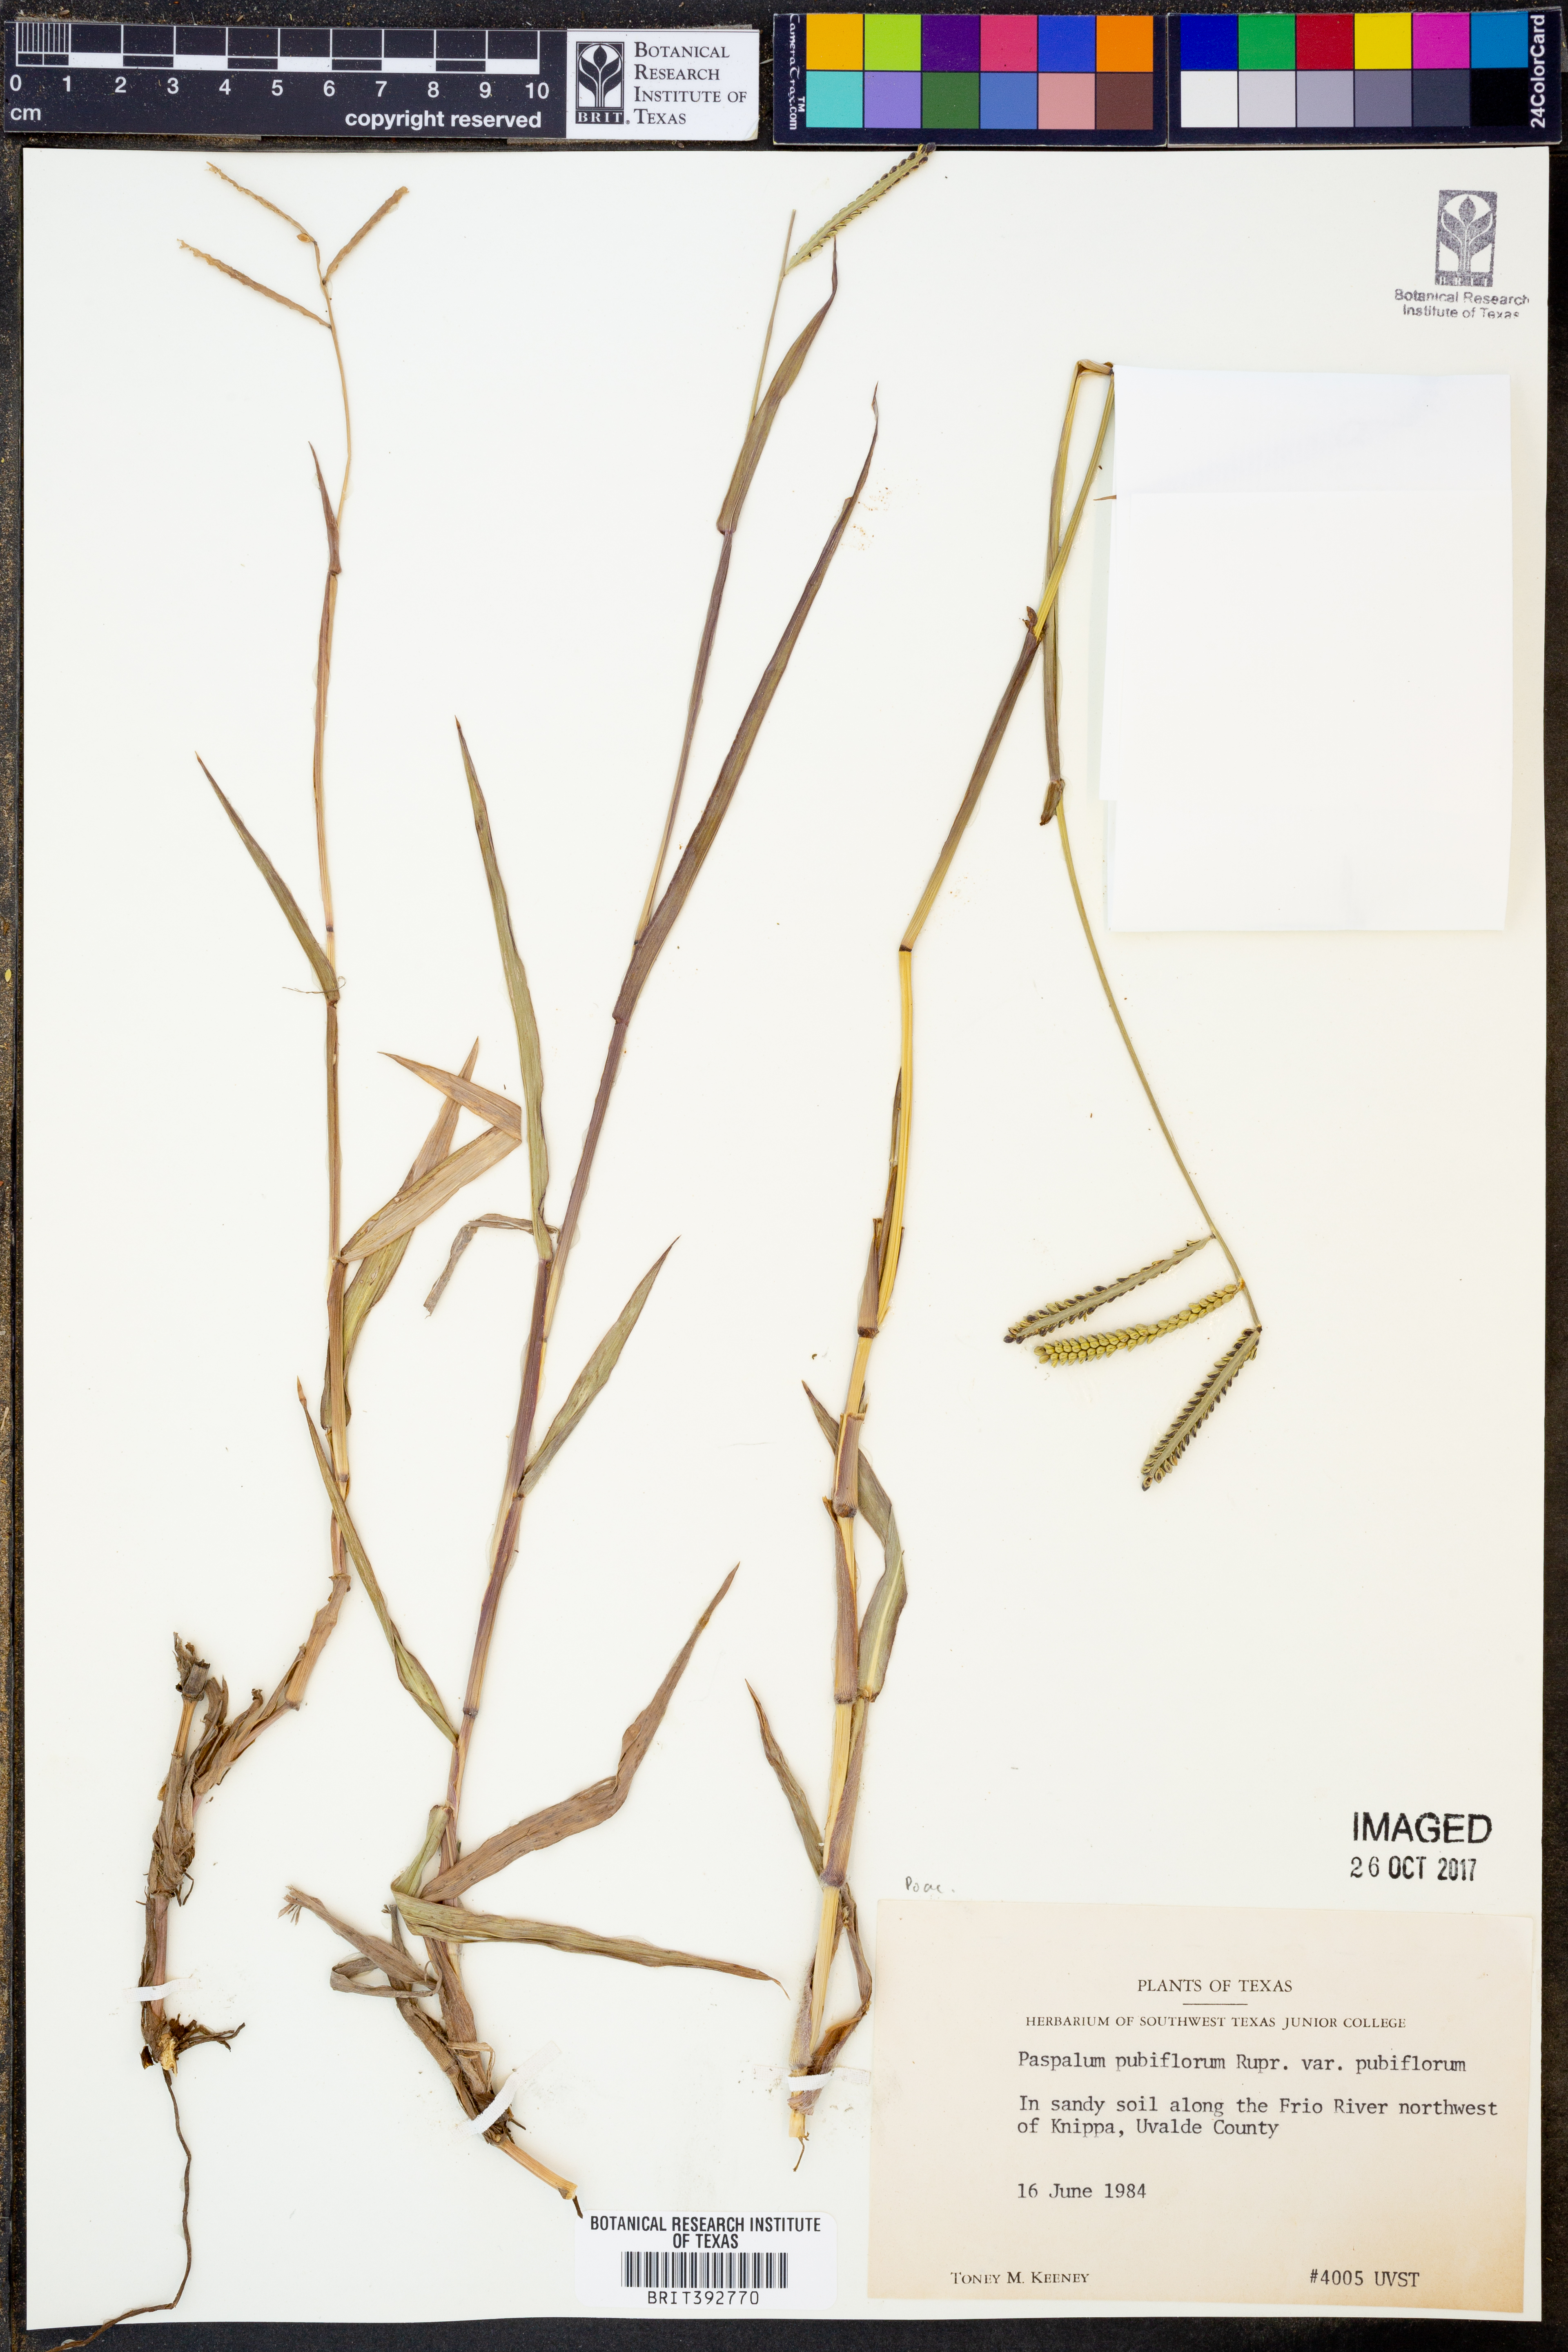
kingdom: Plantae
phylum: Tracheophyta
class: Liliopsida
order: Poales
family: Poaceae
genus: Paspalum
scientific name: Paspalum pubiflorum
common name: Hairy-seed paspalum
